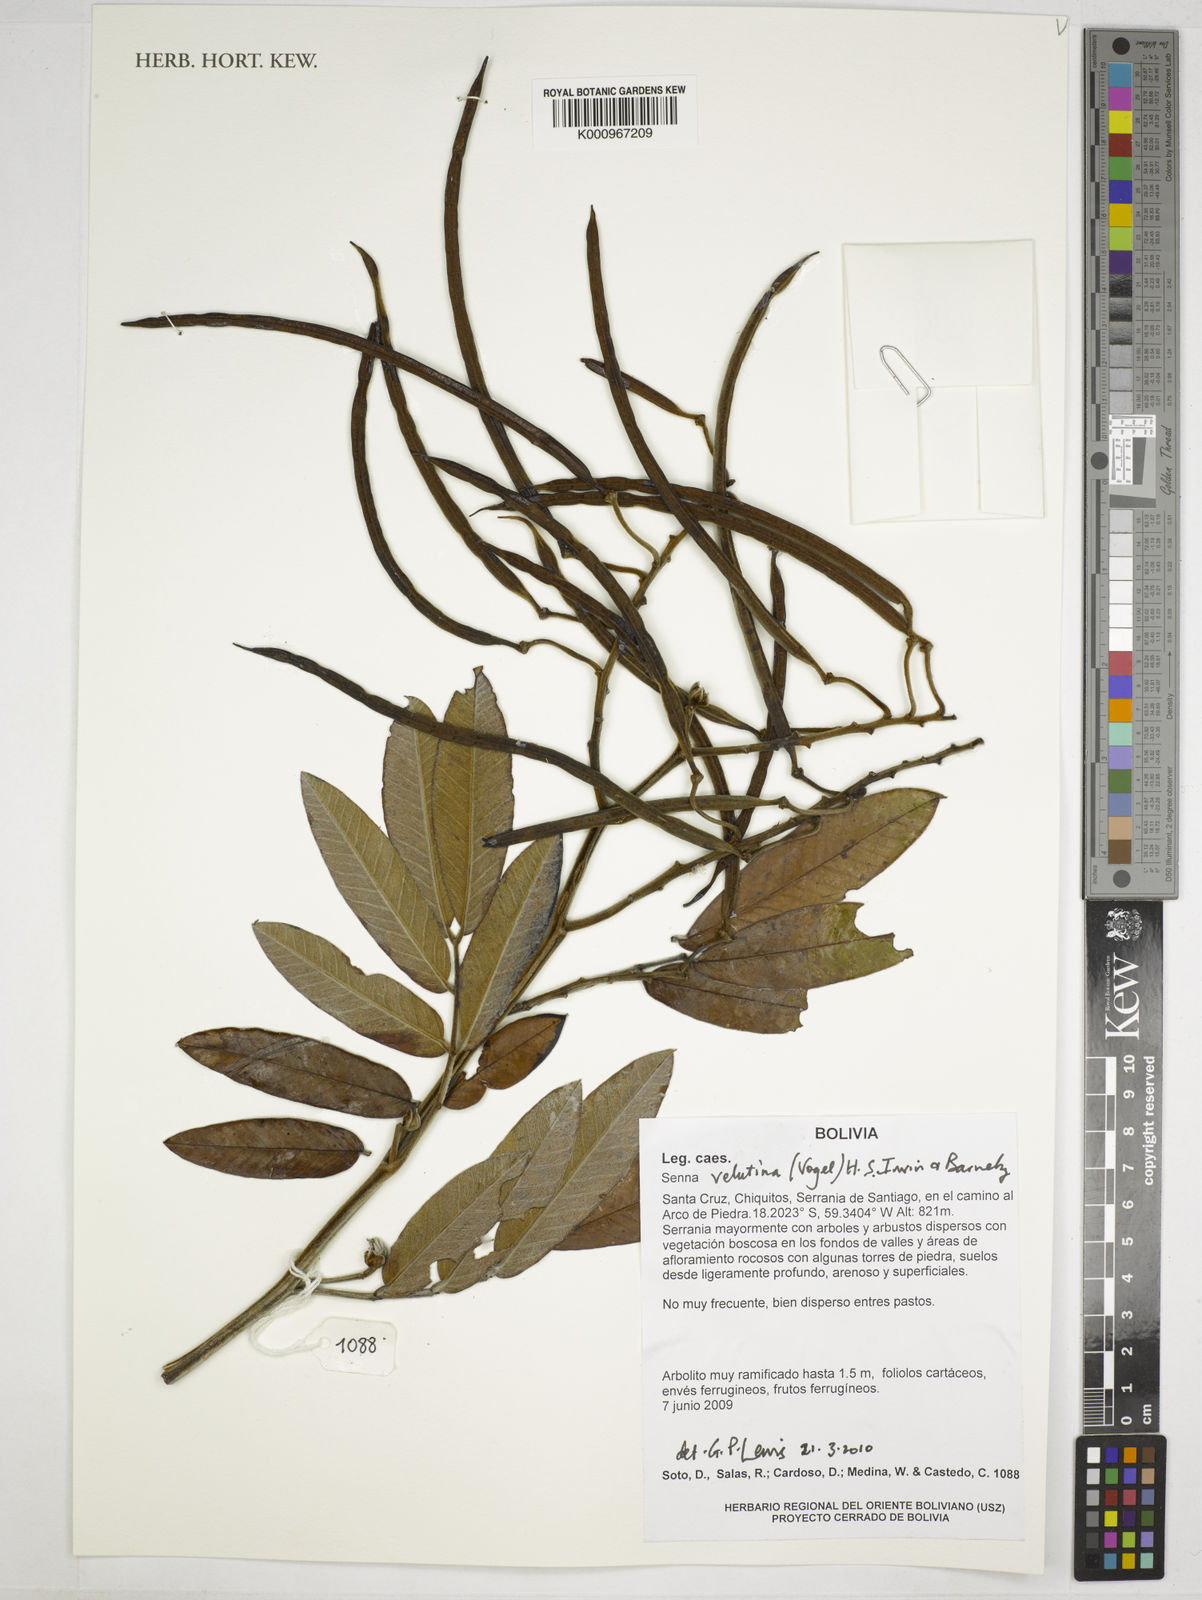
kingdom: Plantae
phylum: Tracheophyta
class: Magnoliopsida
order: Fabales
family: Fabaceae
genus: Senna
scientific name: Senna velutina
